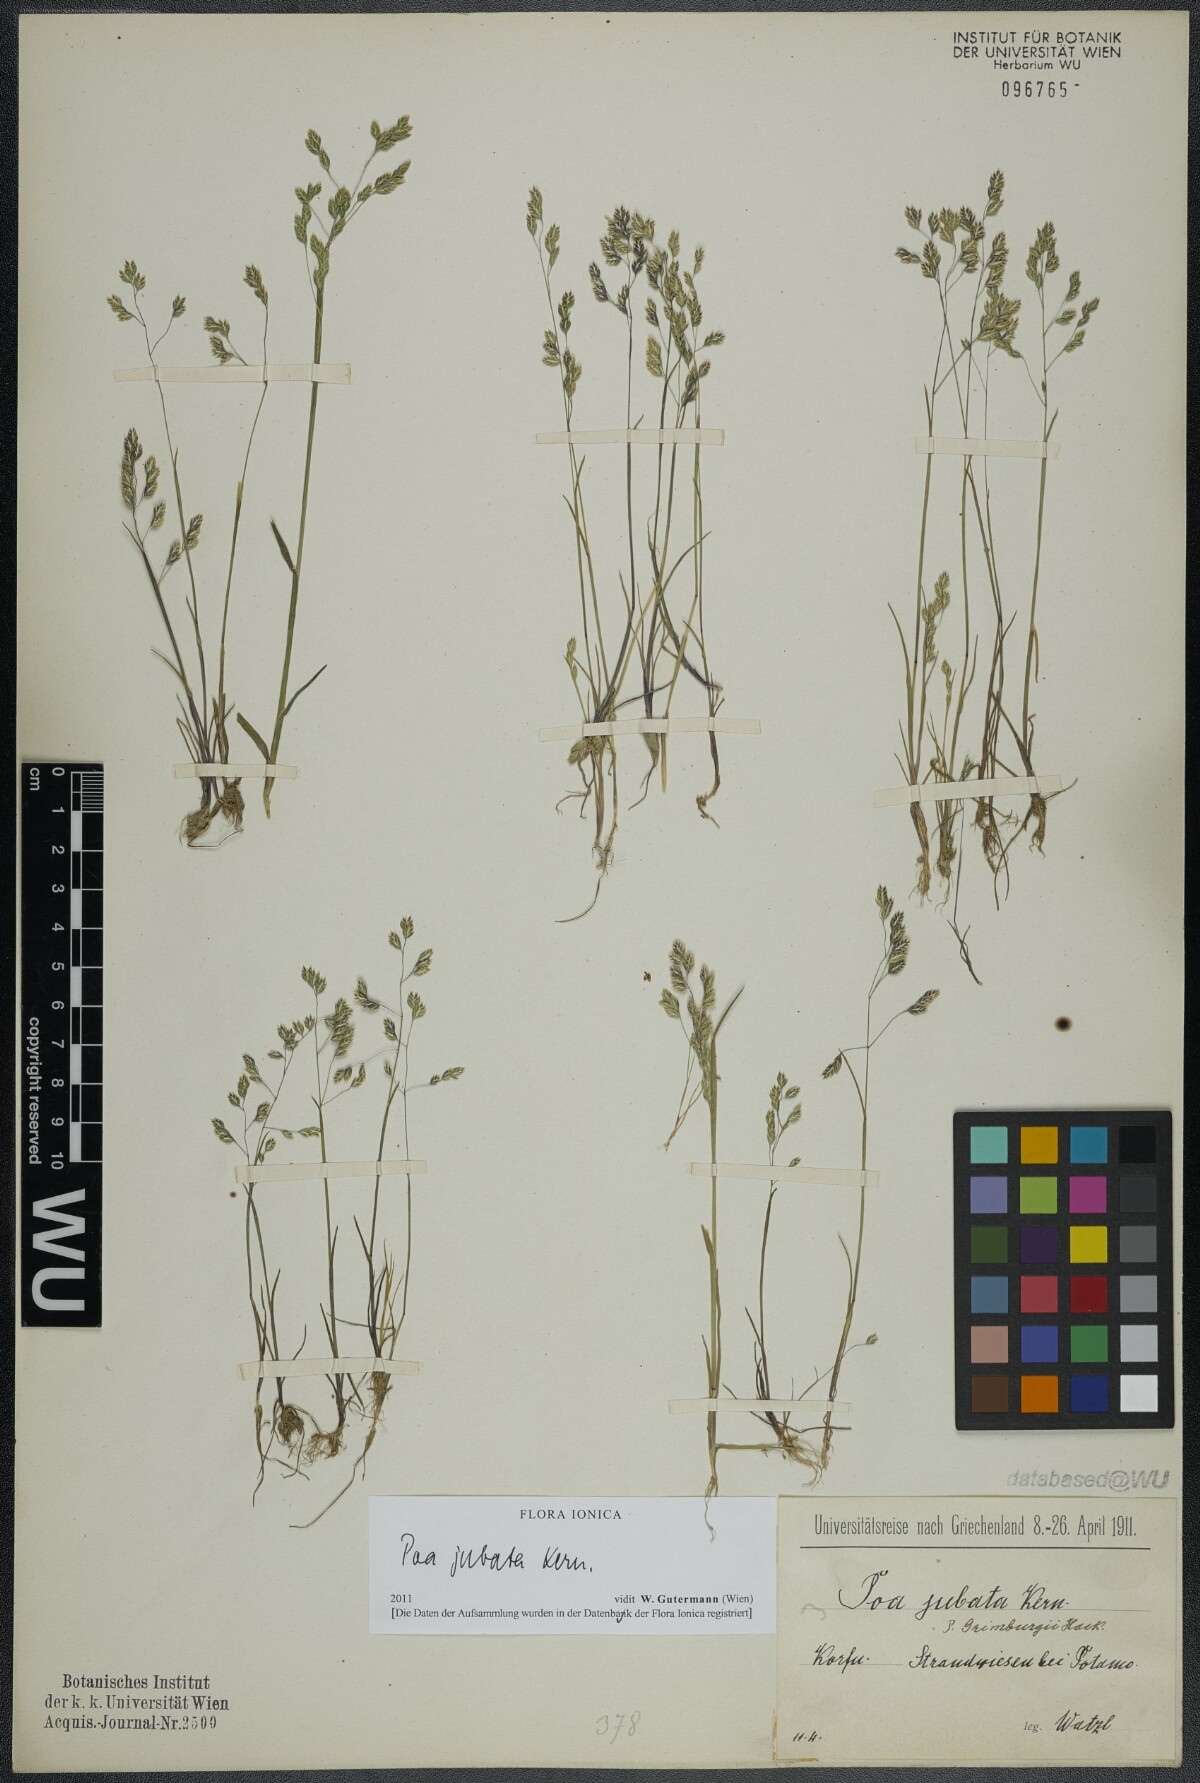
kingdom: Plantae
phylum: Tracheophyta
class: Liliopsida
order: Poales
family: Poaceae
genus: Poa
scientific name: Poa jubata
